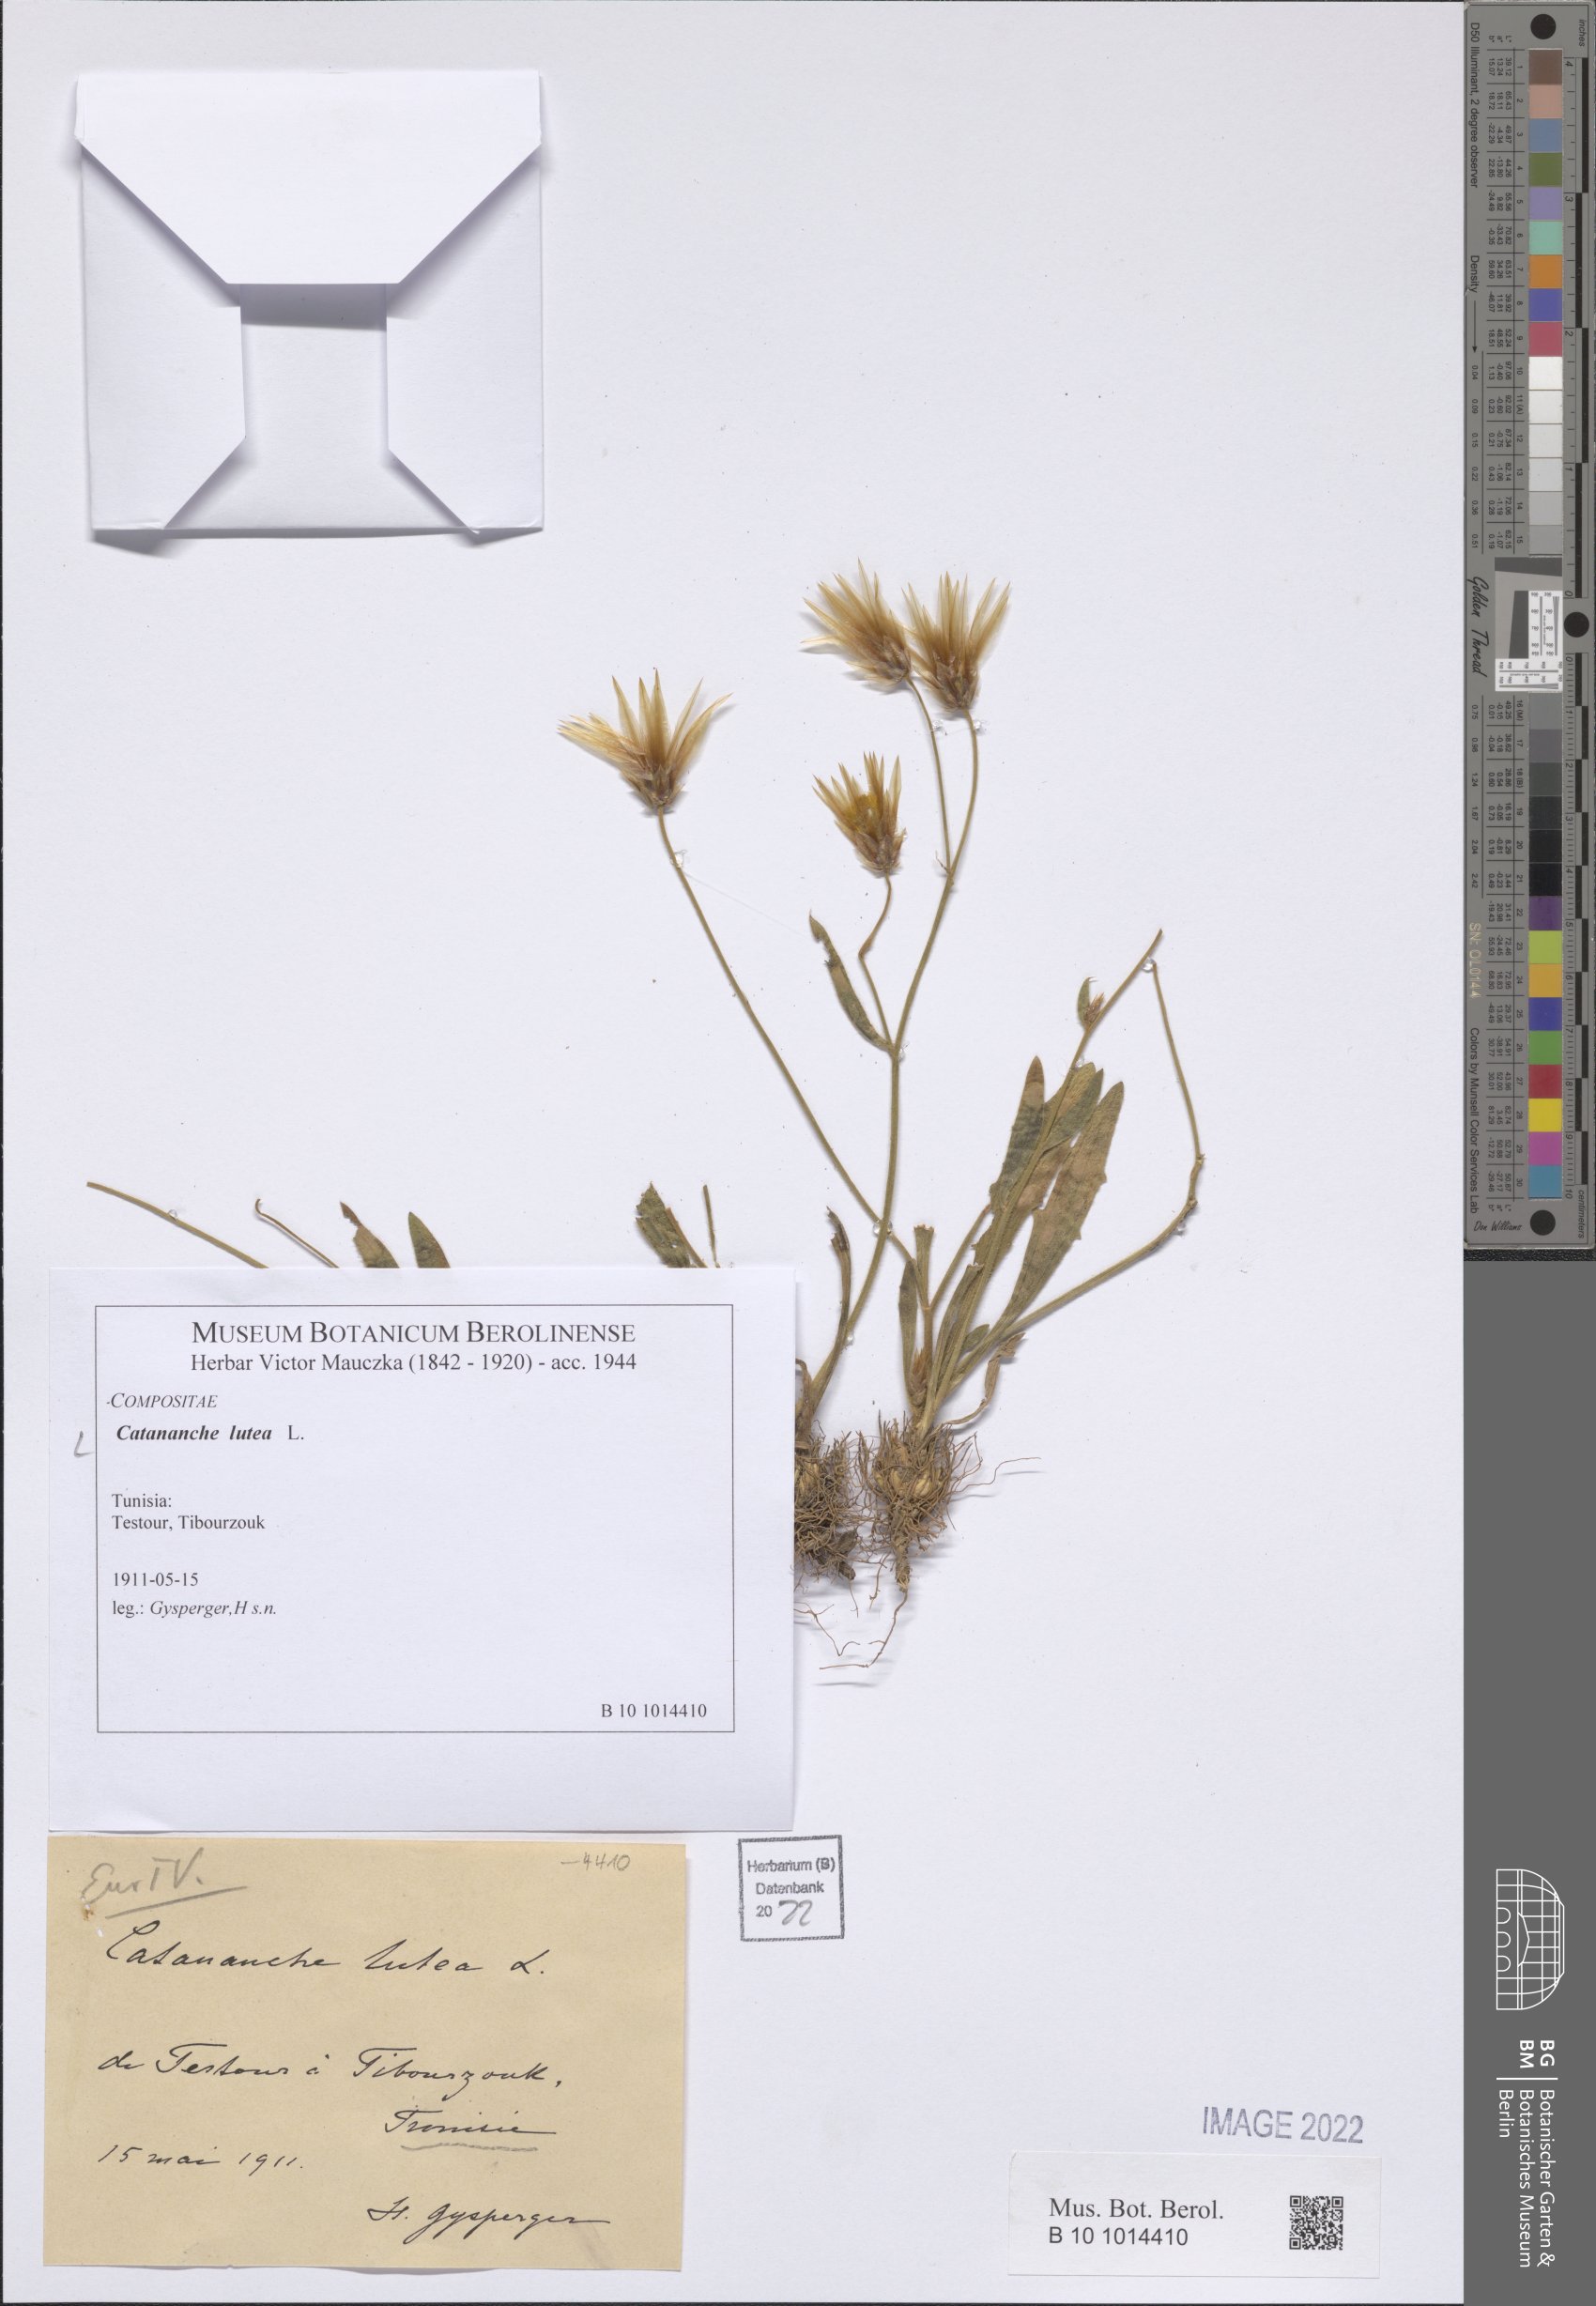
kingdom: Plantae
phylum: Tracheophyta
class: Magnoliopsida
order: Asterales
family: Asteraceae
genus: Catananche
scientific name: Catananche lutea
